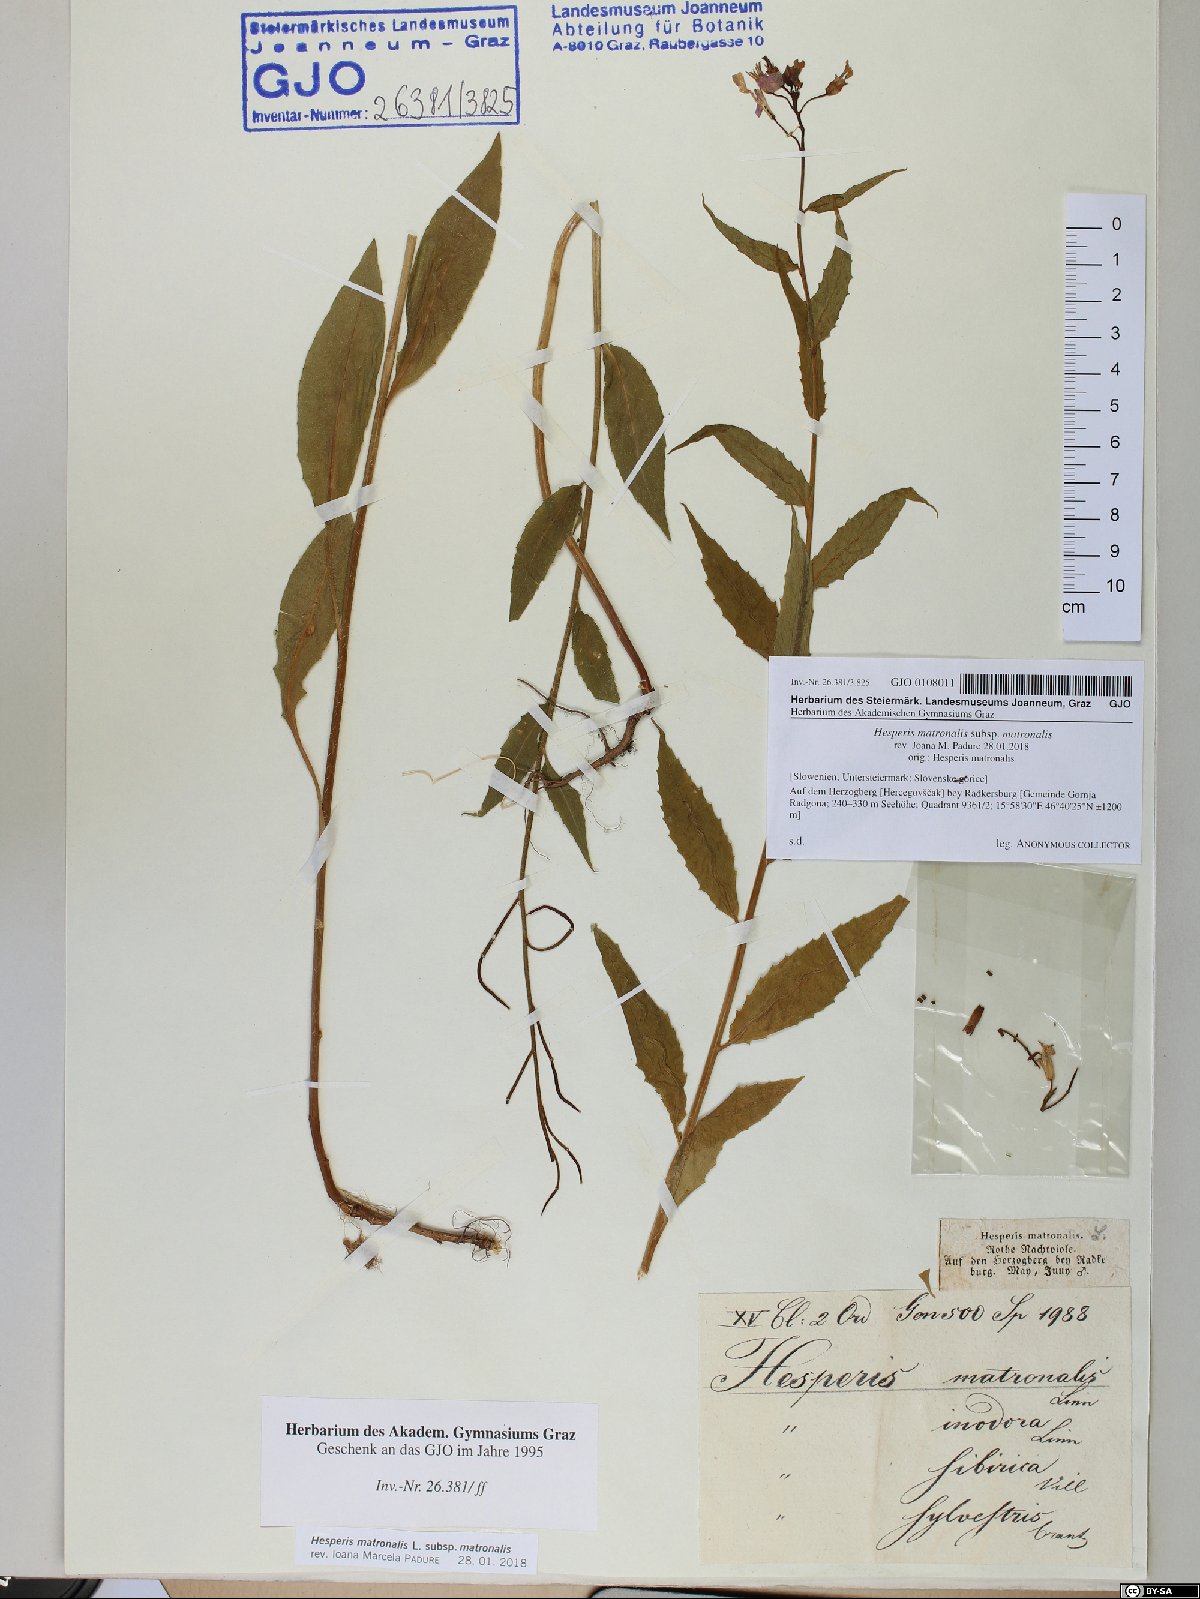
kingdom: Plantae
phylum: Tracheophyta
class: Magnoliopsida
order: Brassicales
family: Brassicaceae
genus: Hesperis
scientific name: Hesperis matronalis
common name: Dame's-violet
